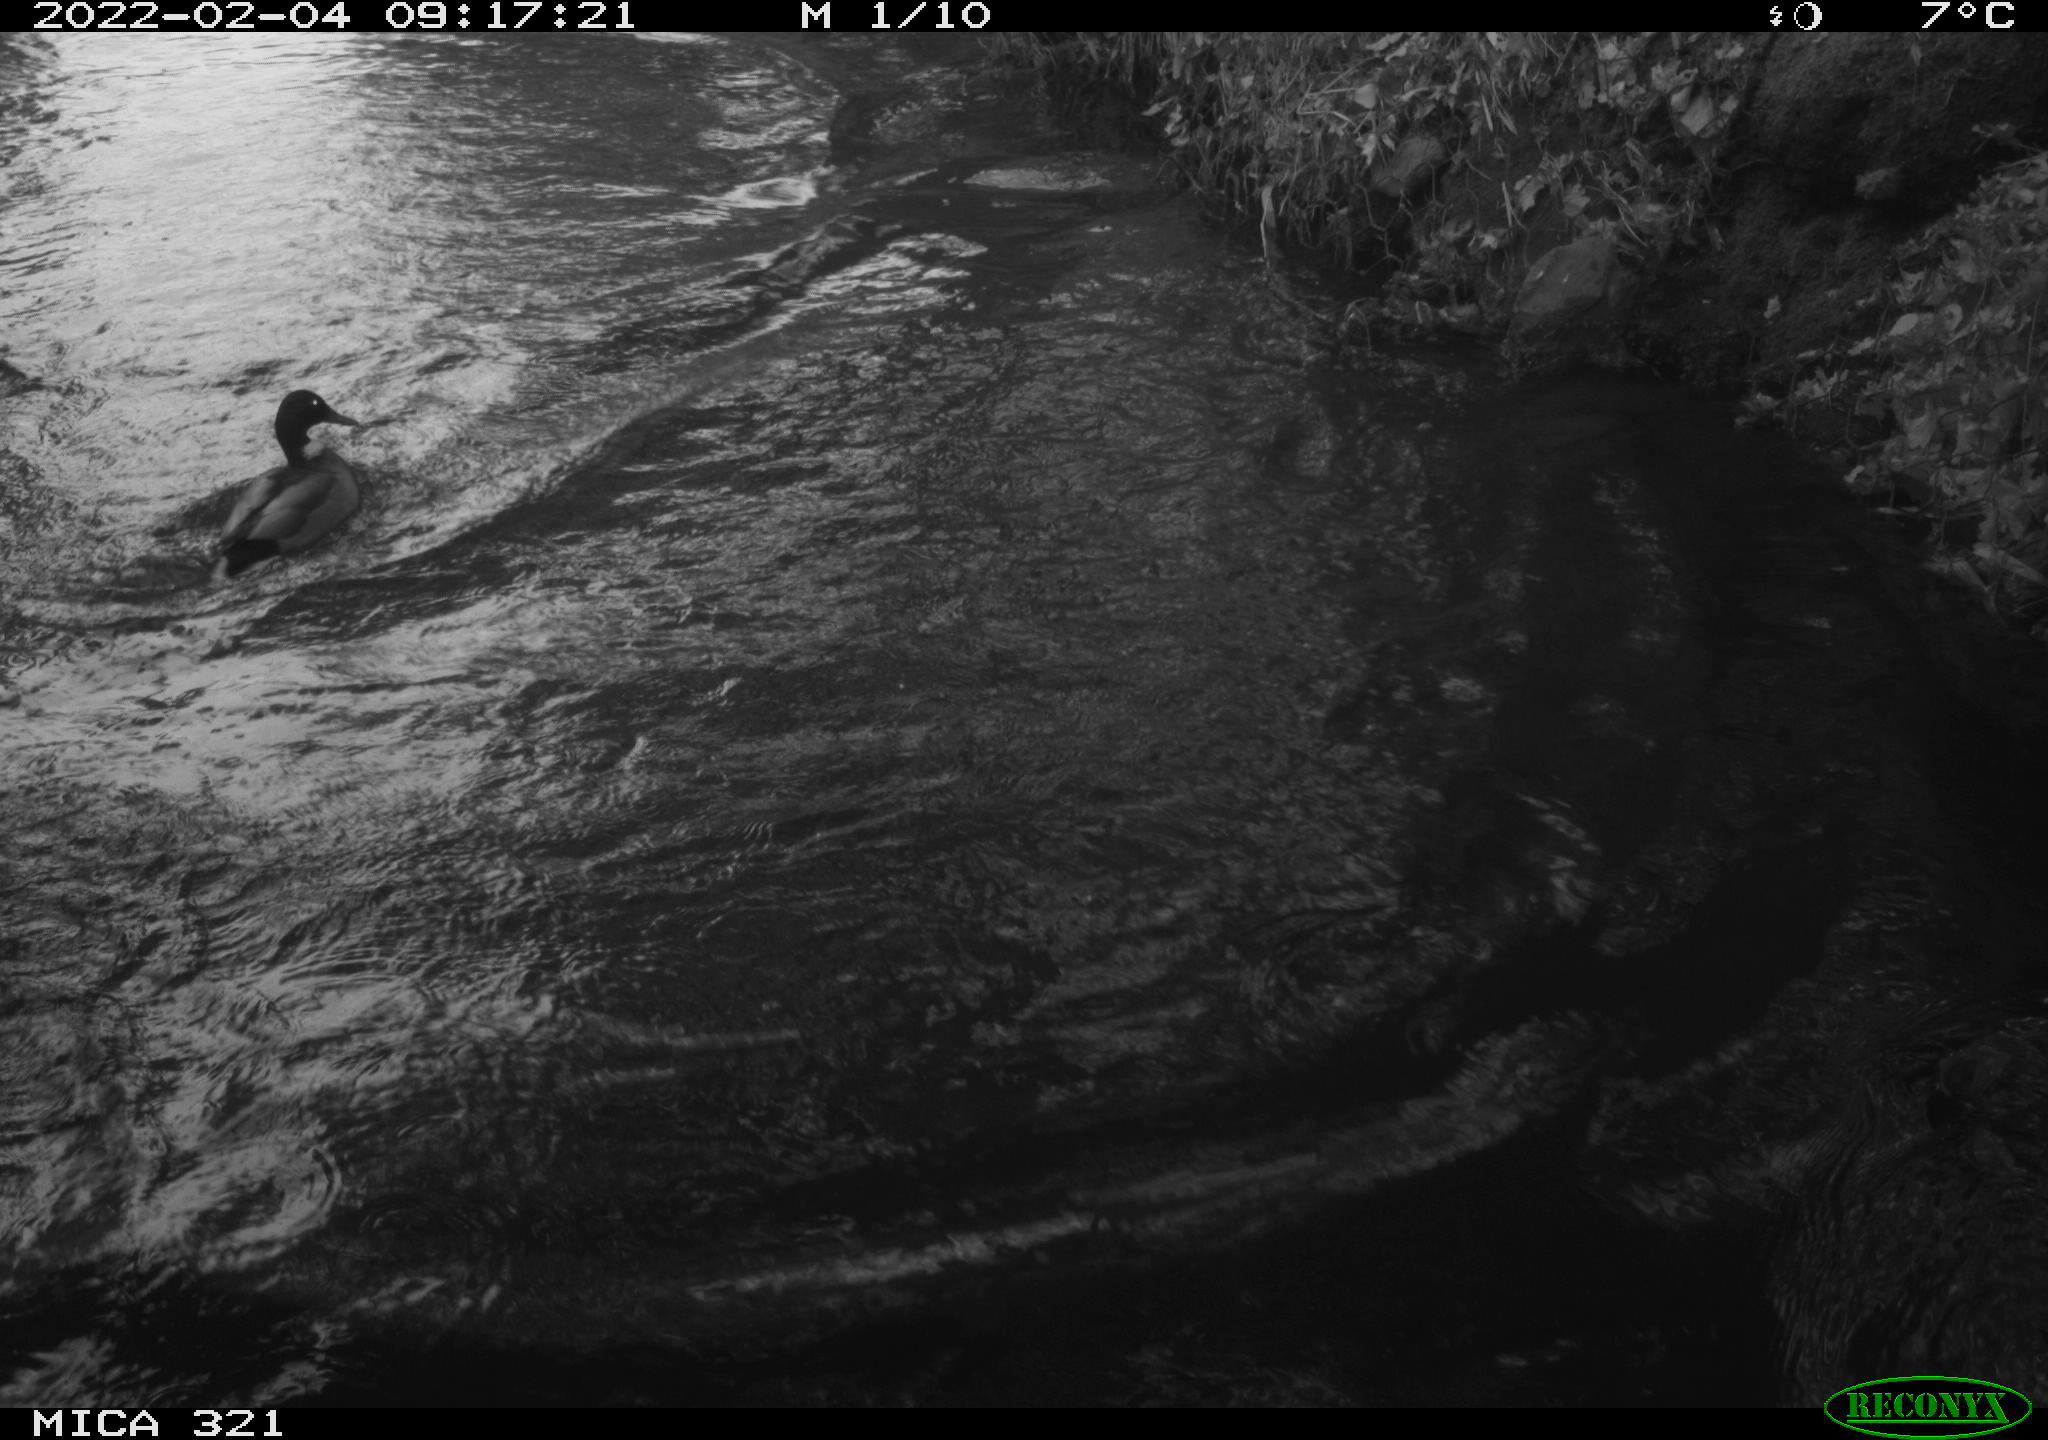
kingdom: Animalia
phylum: Chordata
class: Aves
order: Anseriformes
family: Anatidae
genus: Anas
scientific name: Anas platyrhynchos
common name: Mallard
